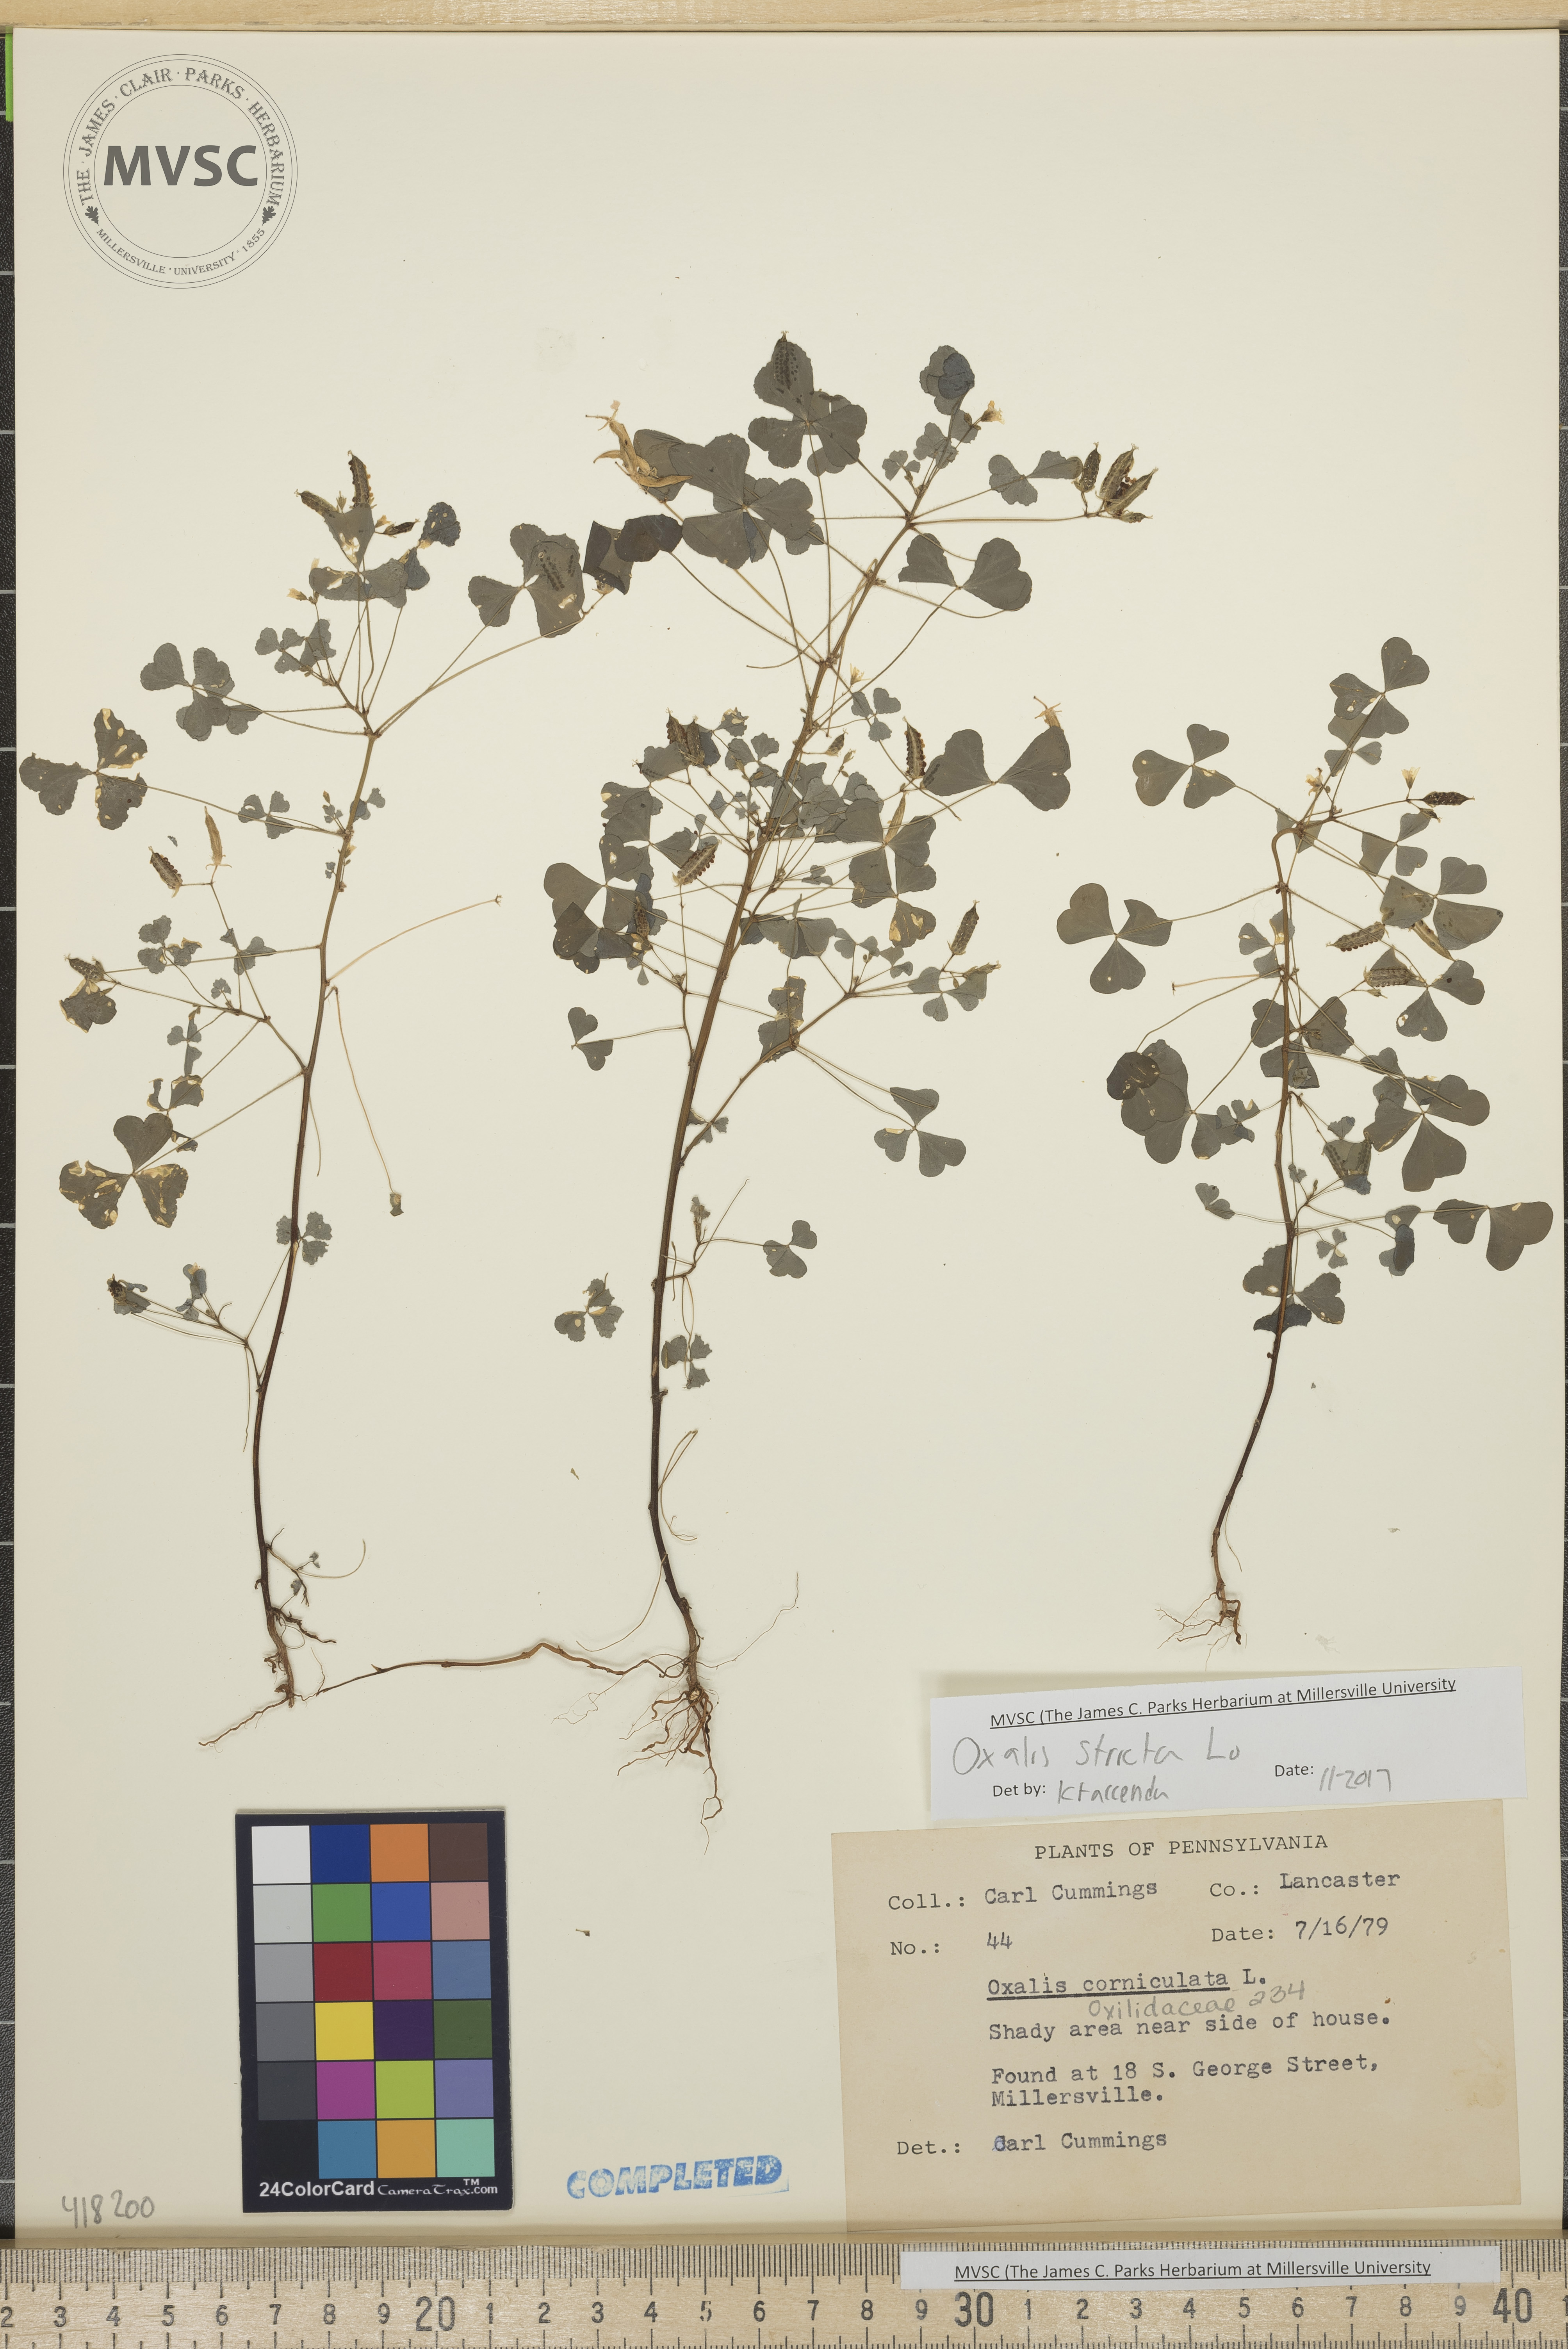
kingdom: Plantae
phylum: Tracheophyta
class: Magnoliopsida
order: Oxalidales
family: Oxalidaceae
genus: Oxalis
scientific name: Oxalis stricta
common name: Upright yellow-sorrel
